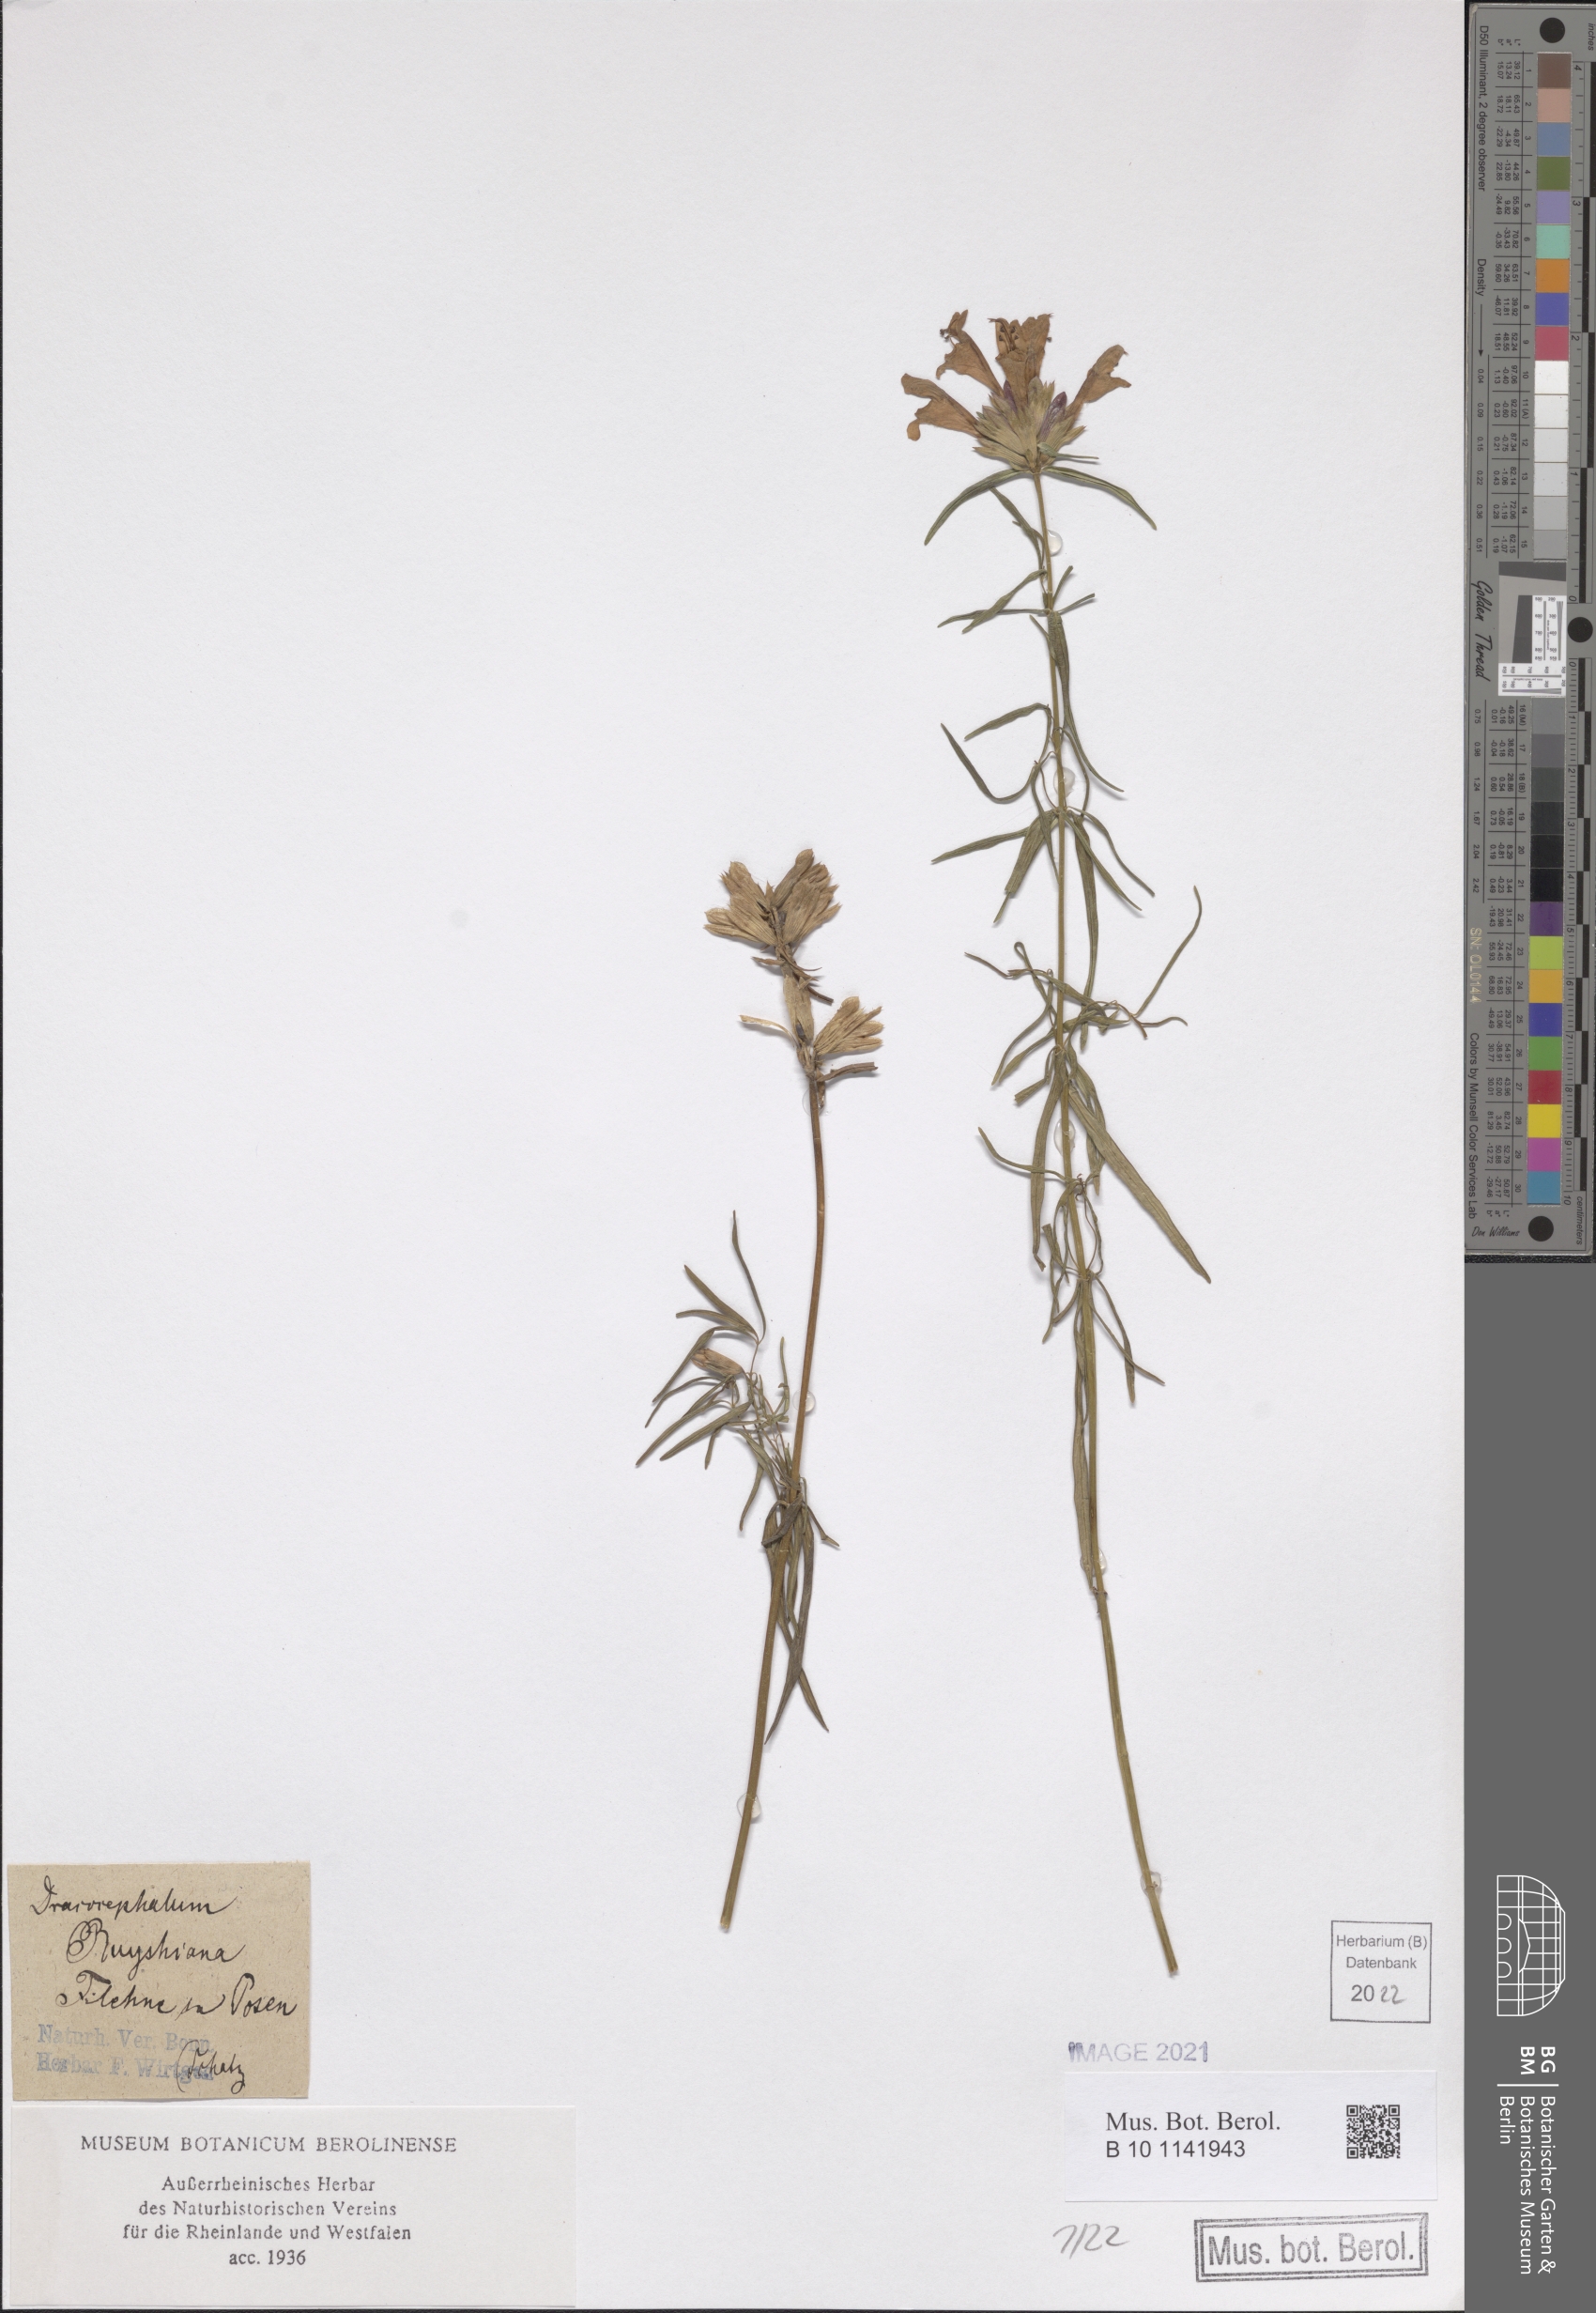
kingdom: Plantae
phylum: Tracheophyta
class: Magnoliopsida
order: Lamiales
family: Lamiaceae
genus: Dracocephalum
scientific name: Dracocephalum ruyschiana
